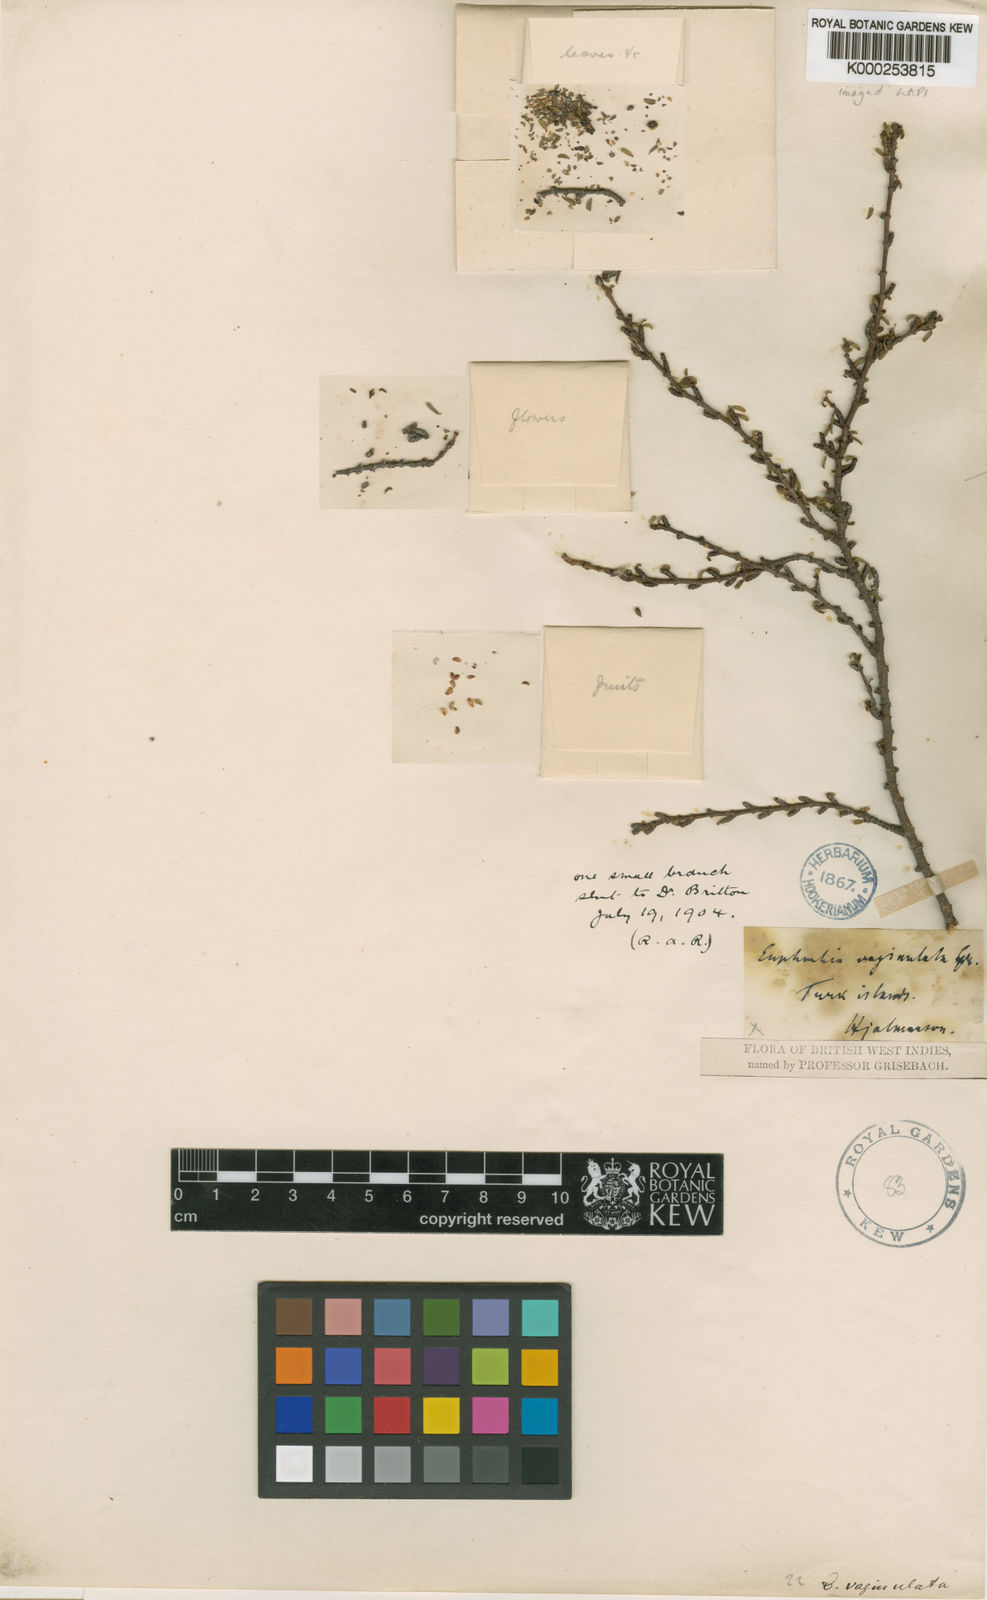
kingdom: Plantae
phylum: Tracheophyta
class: Magnoliopsida
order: Malpighiales
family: Euphorbiaceae
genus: Euphorbia
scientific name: Euphorbia vaginulata
